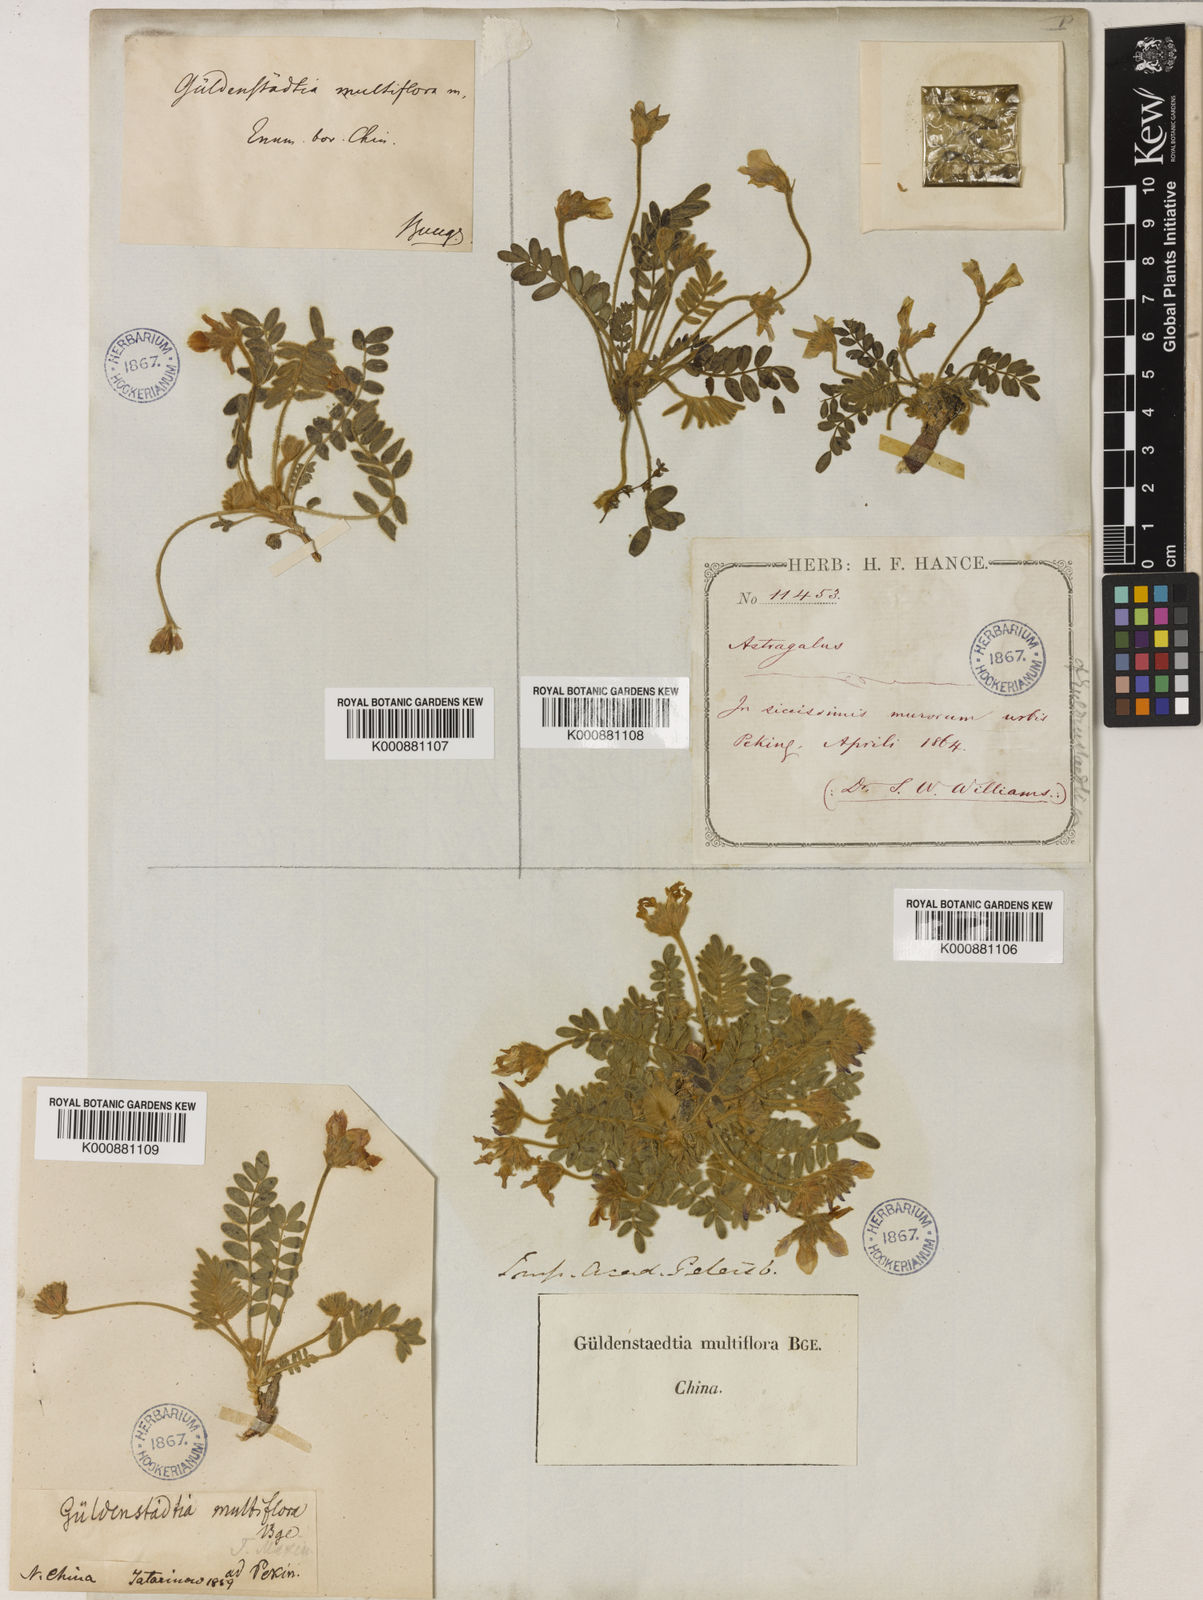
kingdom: Plantae
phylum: Tracheophyta
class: Magnoliopsida
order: Fabales
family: Fabaceae
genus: Gueldenstaedtia
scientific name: Gueldenstaedtia verna
